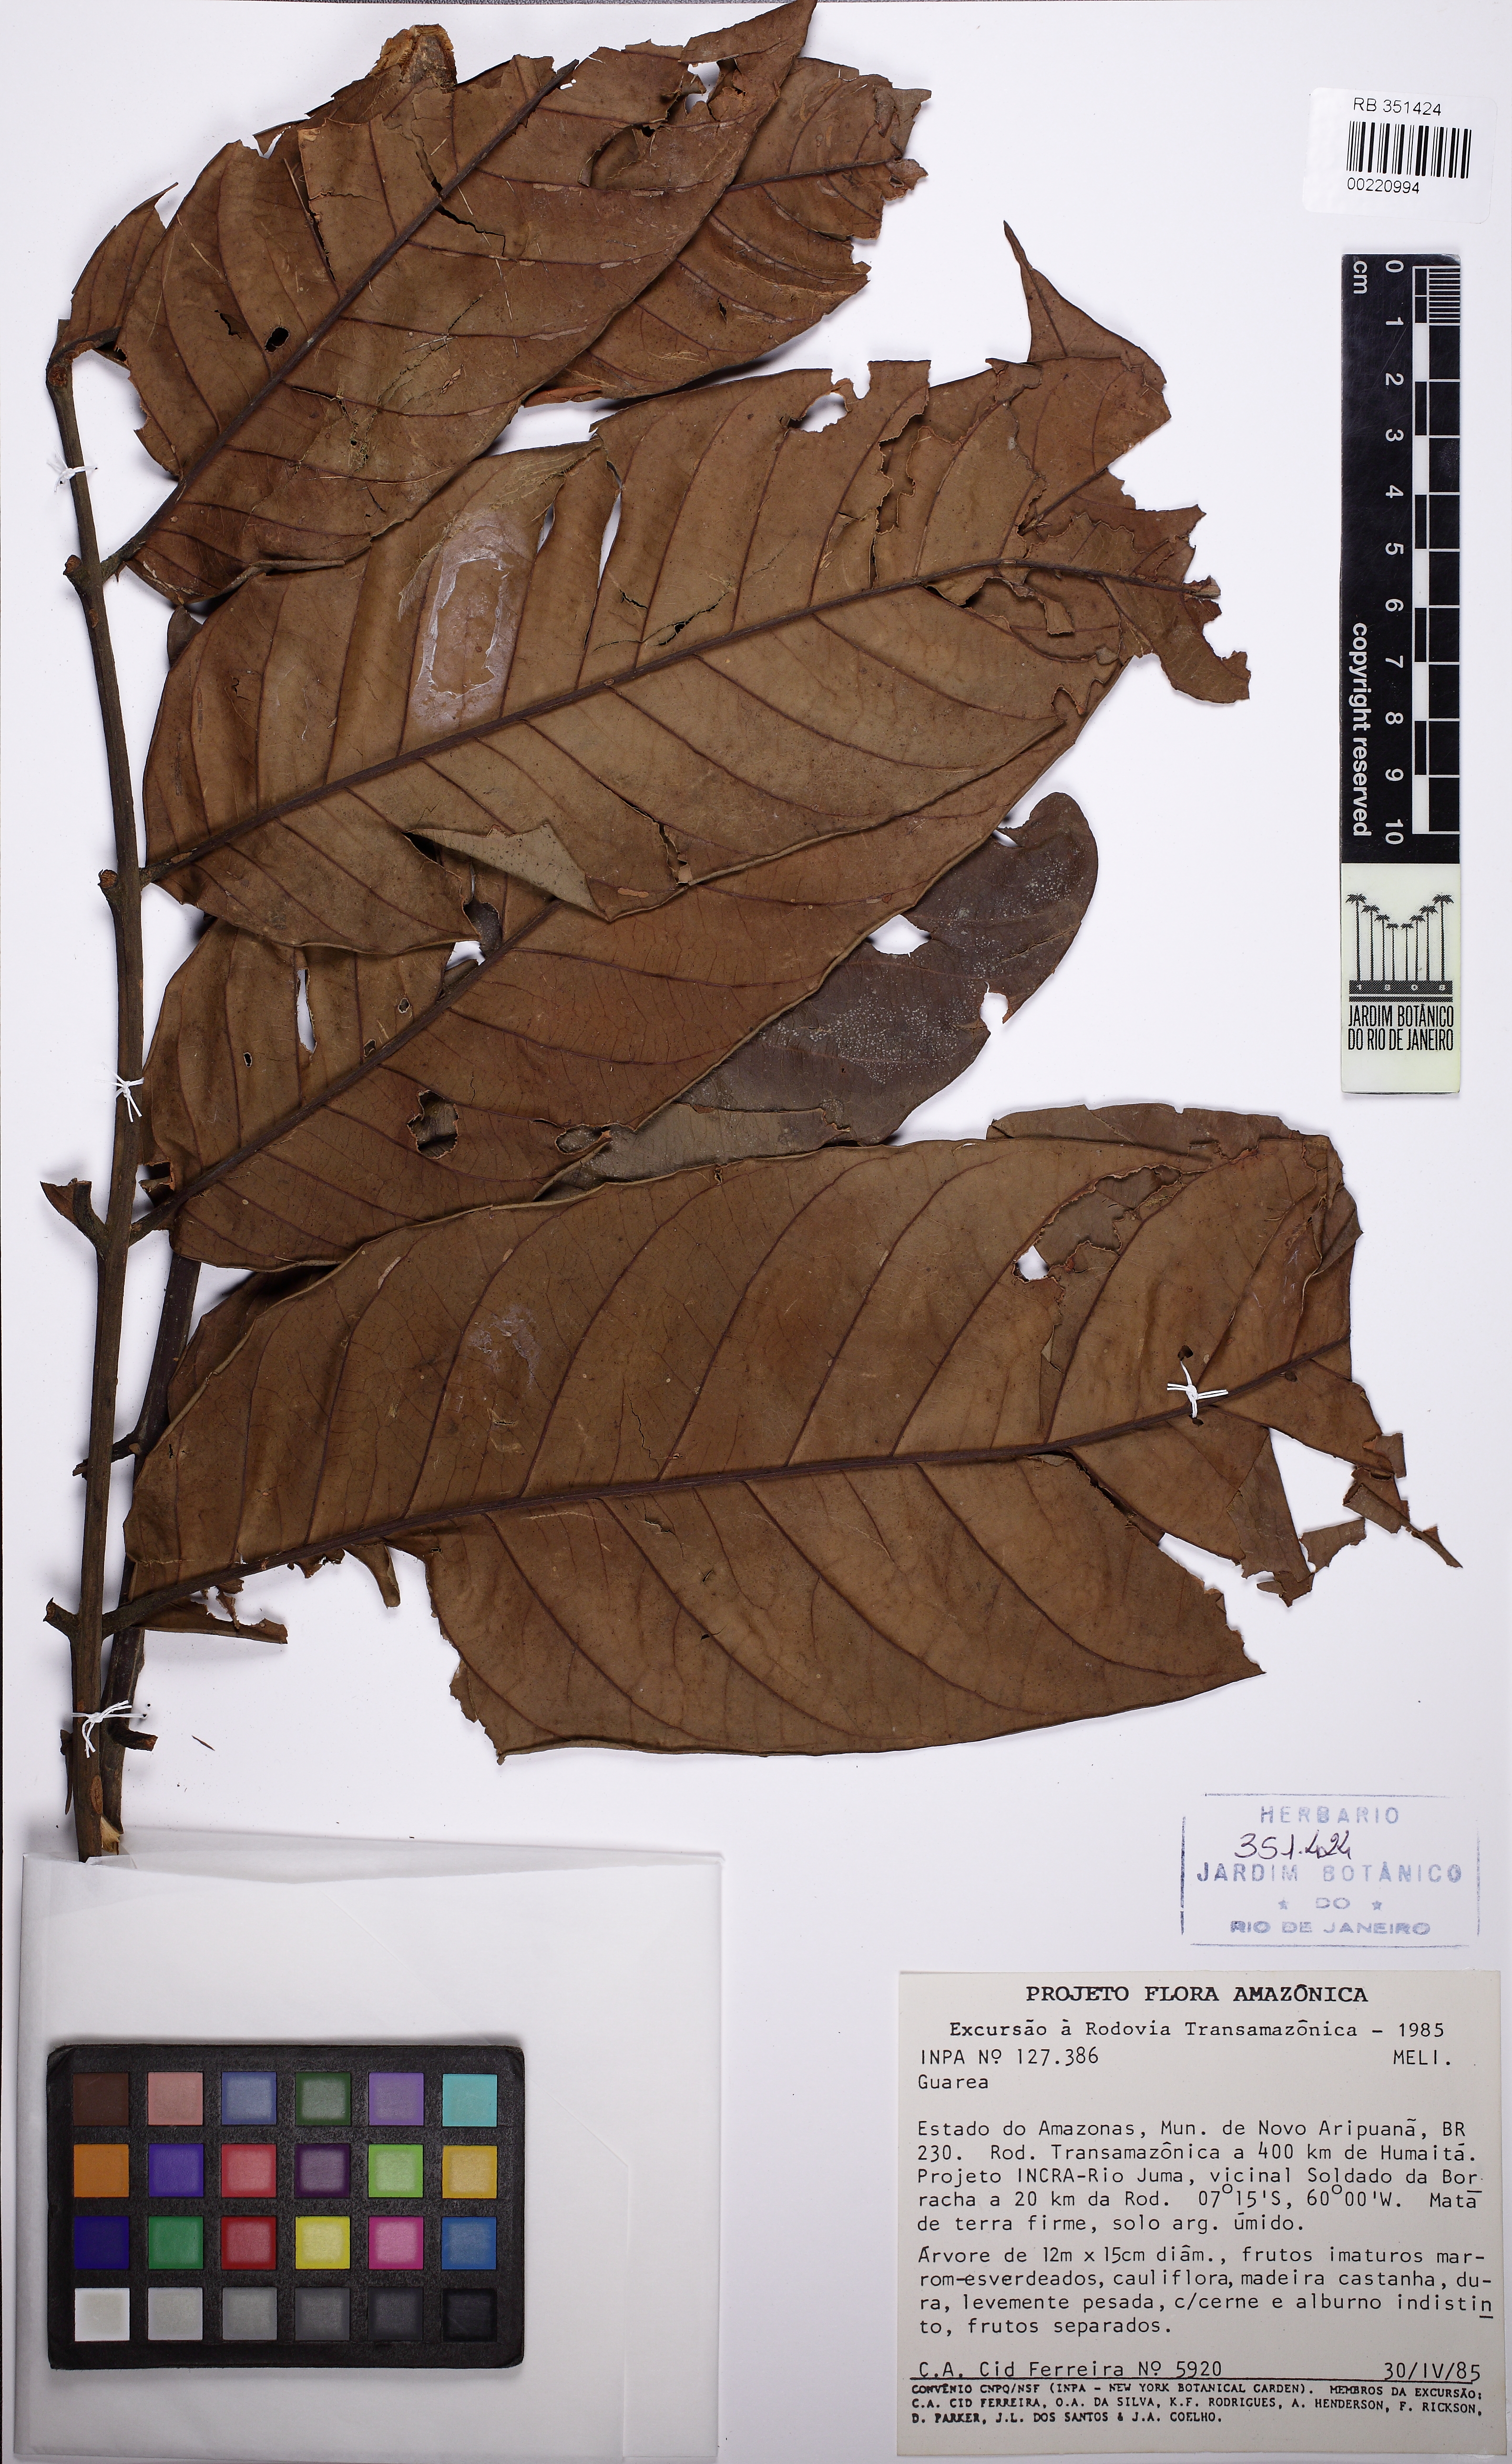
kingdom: Plantae
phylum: Tracheophyta
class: Magnoliopsida
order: Sapindales
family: Meliaceae
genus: Guarea
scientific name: Guarea cinnamomea
